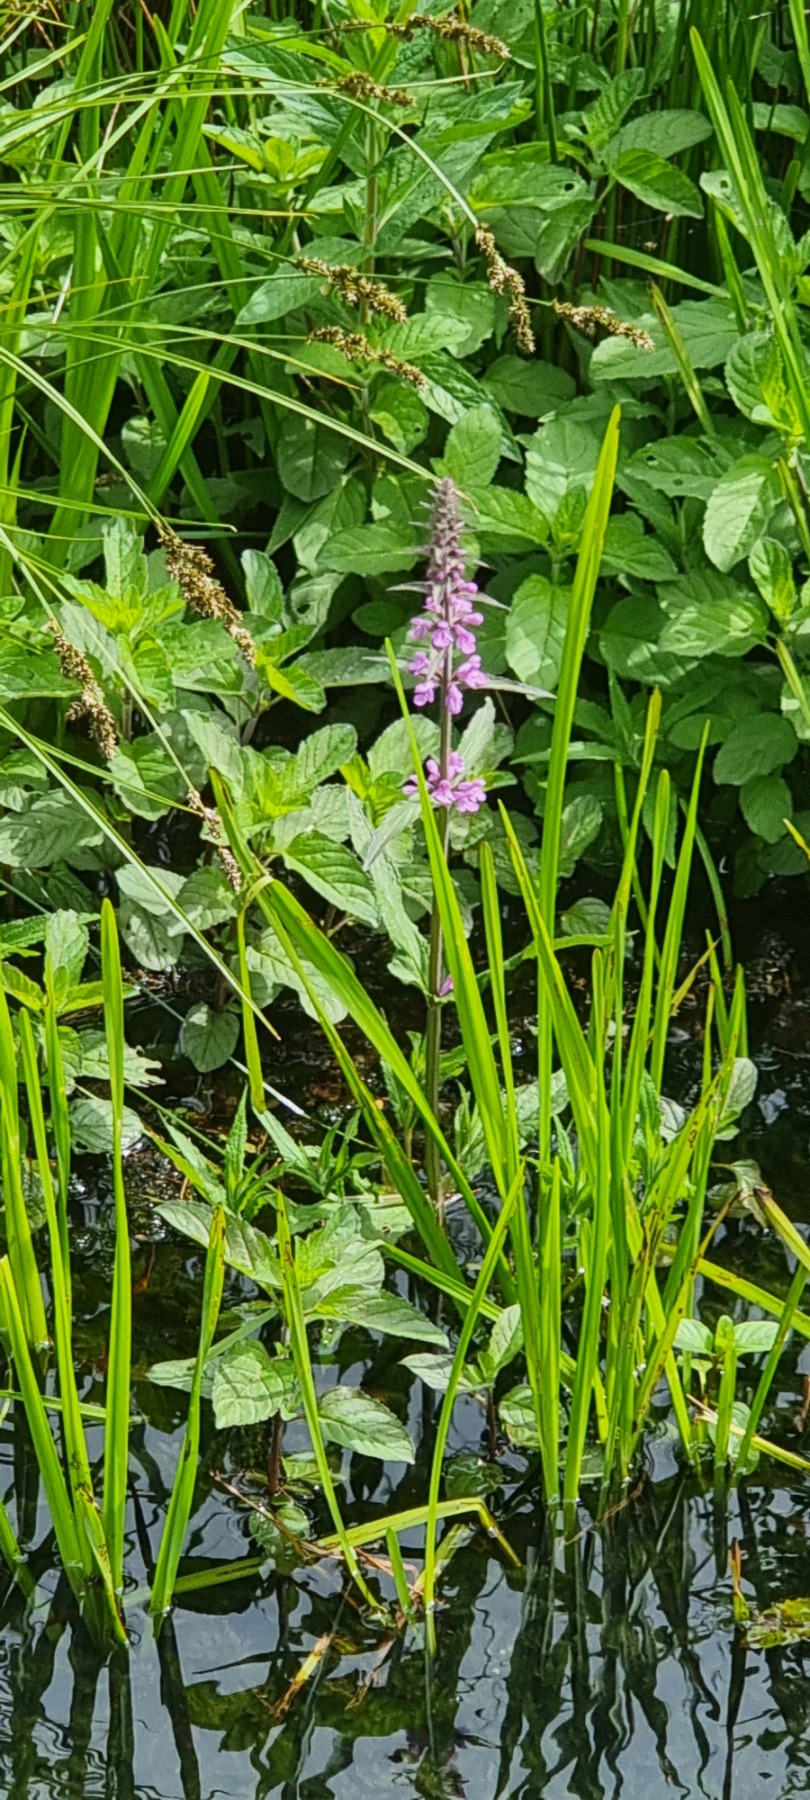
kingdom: Plantae
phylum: Tracheophyta
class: Magnoliopsida
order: Lamiales
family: Lamiaceae
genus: Stachys
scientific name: Stachys palustris
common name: Kær-galtetand
